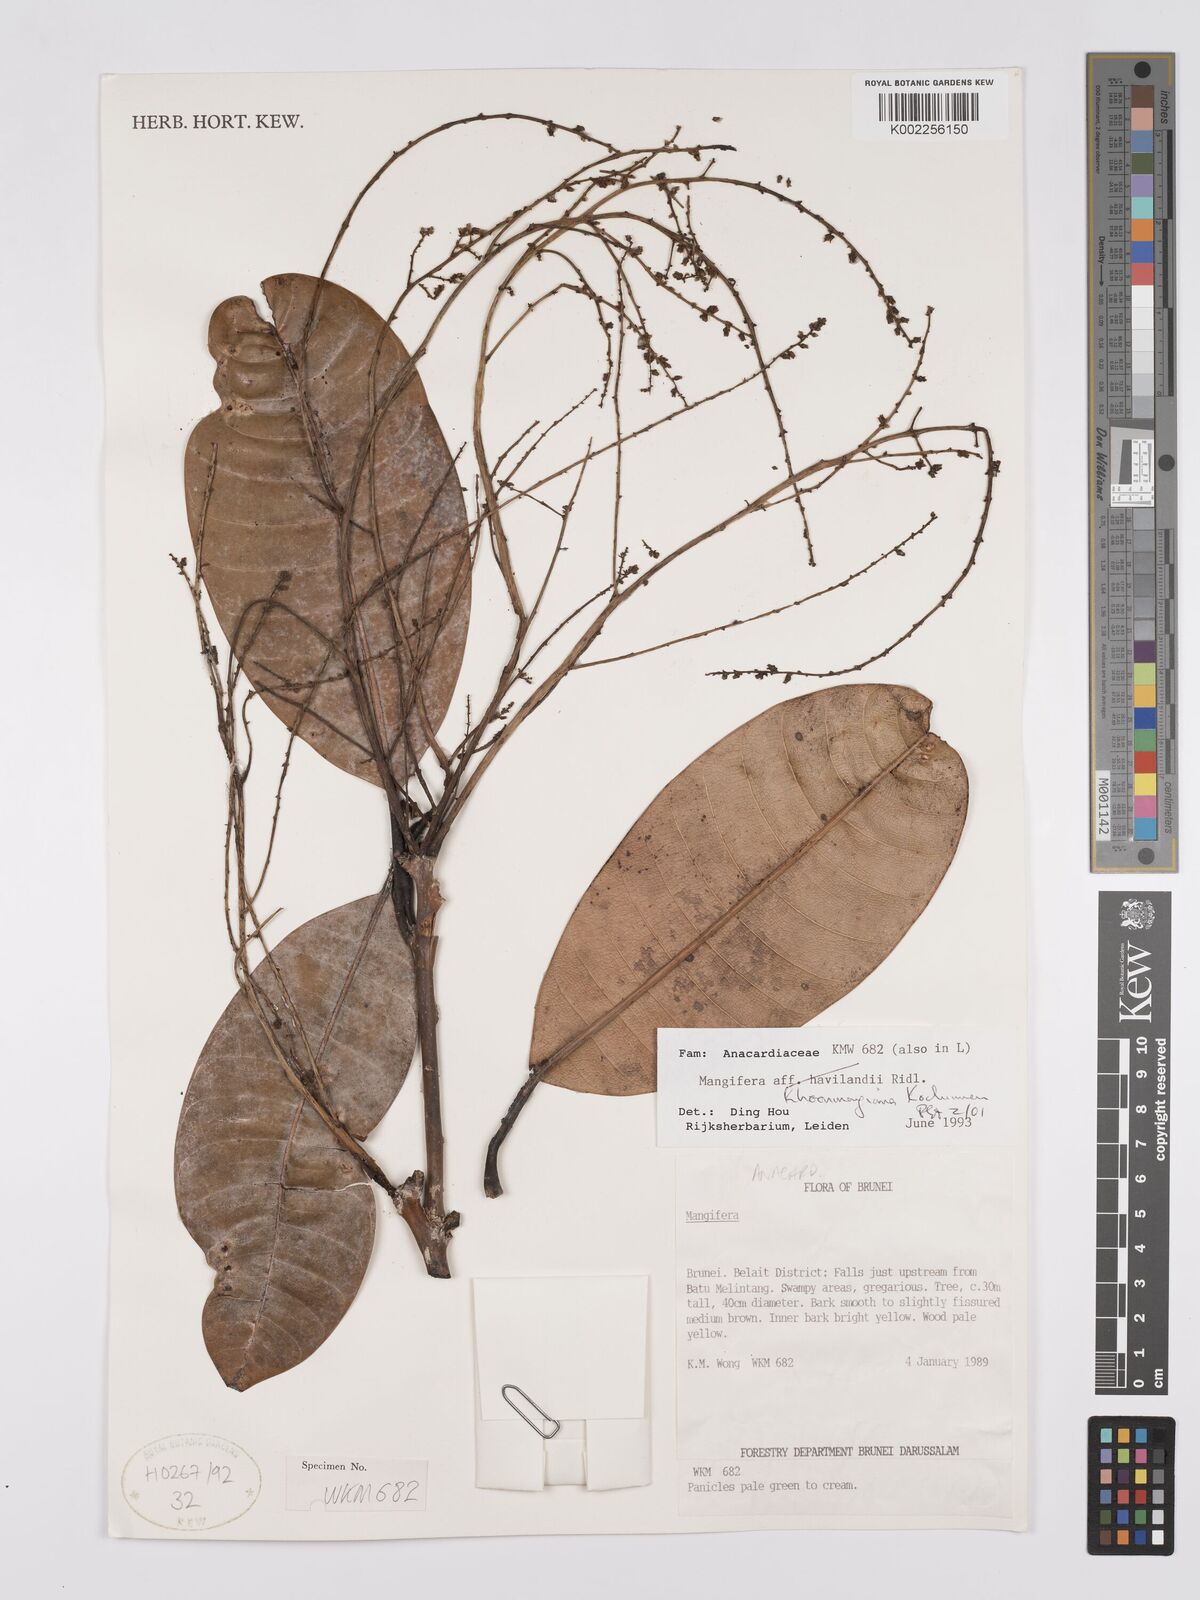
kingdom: Plantae
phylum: Tracheophyta
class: Magnoliopsida
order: Sapindales
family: Anacardiaceae
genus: Mangifera
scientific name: Mangifera khoonmengiana
